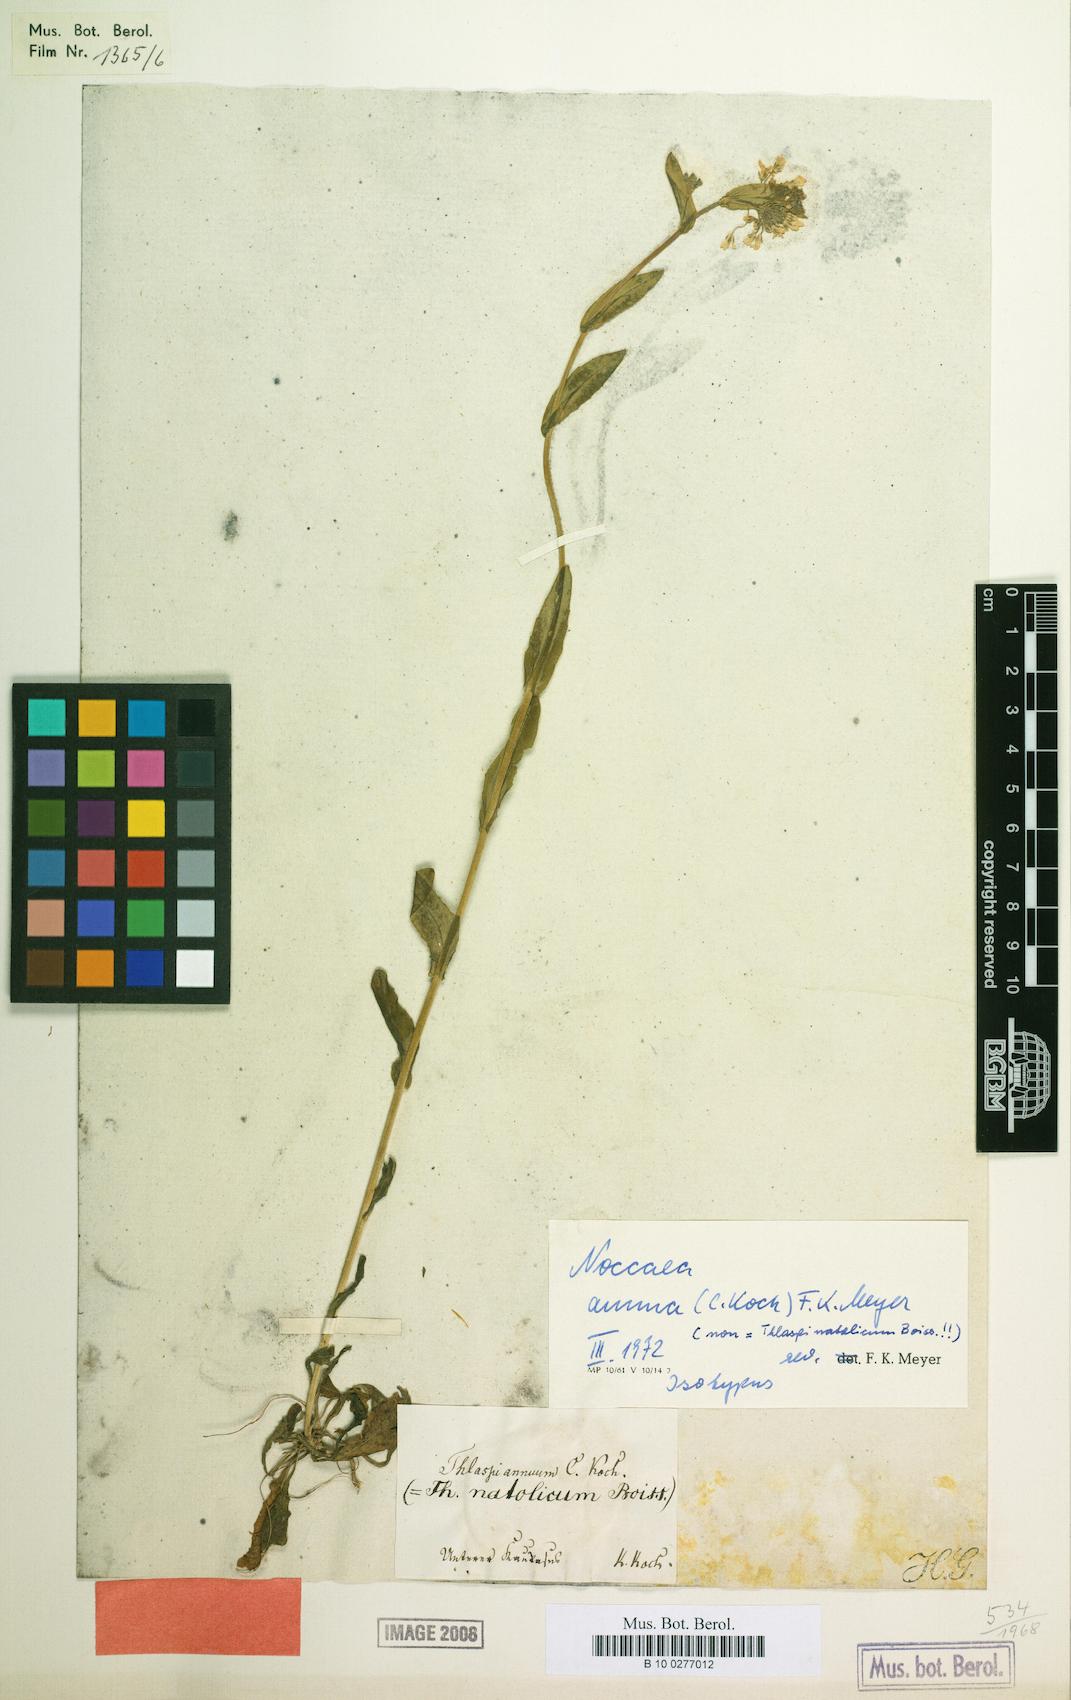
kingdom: Plantae
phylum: Tracheophyta
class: Magnoliopsida
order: Brassicales
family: Brassicaceae
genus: Noccaea
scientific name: Noccaea annua
